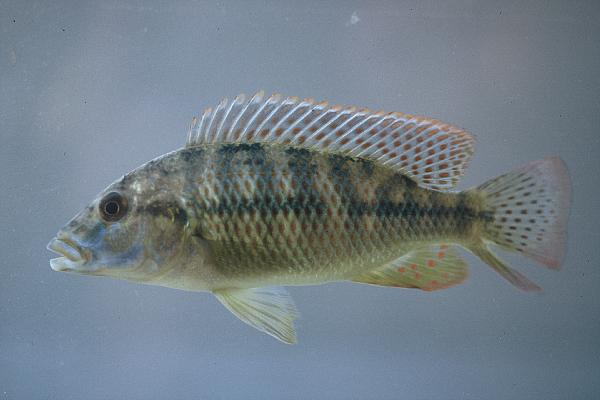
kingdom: Animalia
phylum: Chordata
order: Perciformes
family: Cichlidae
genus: Thoracochromis
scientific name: Thoracochromis albolabris
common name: Thicklipped happy
